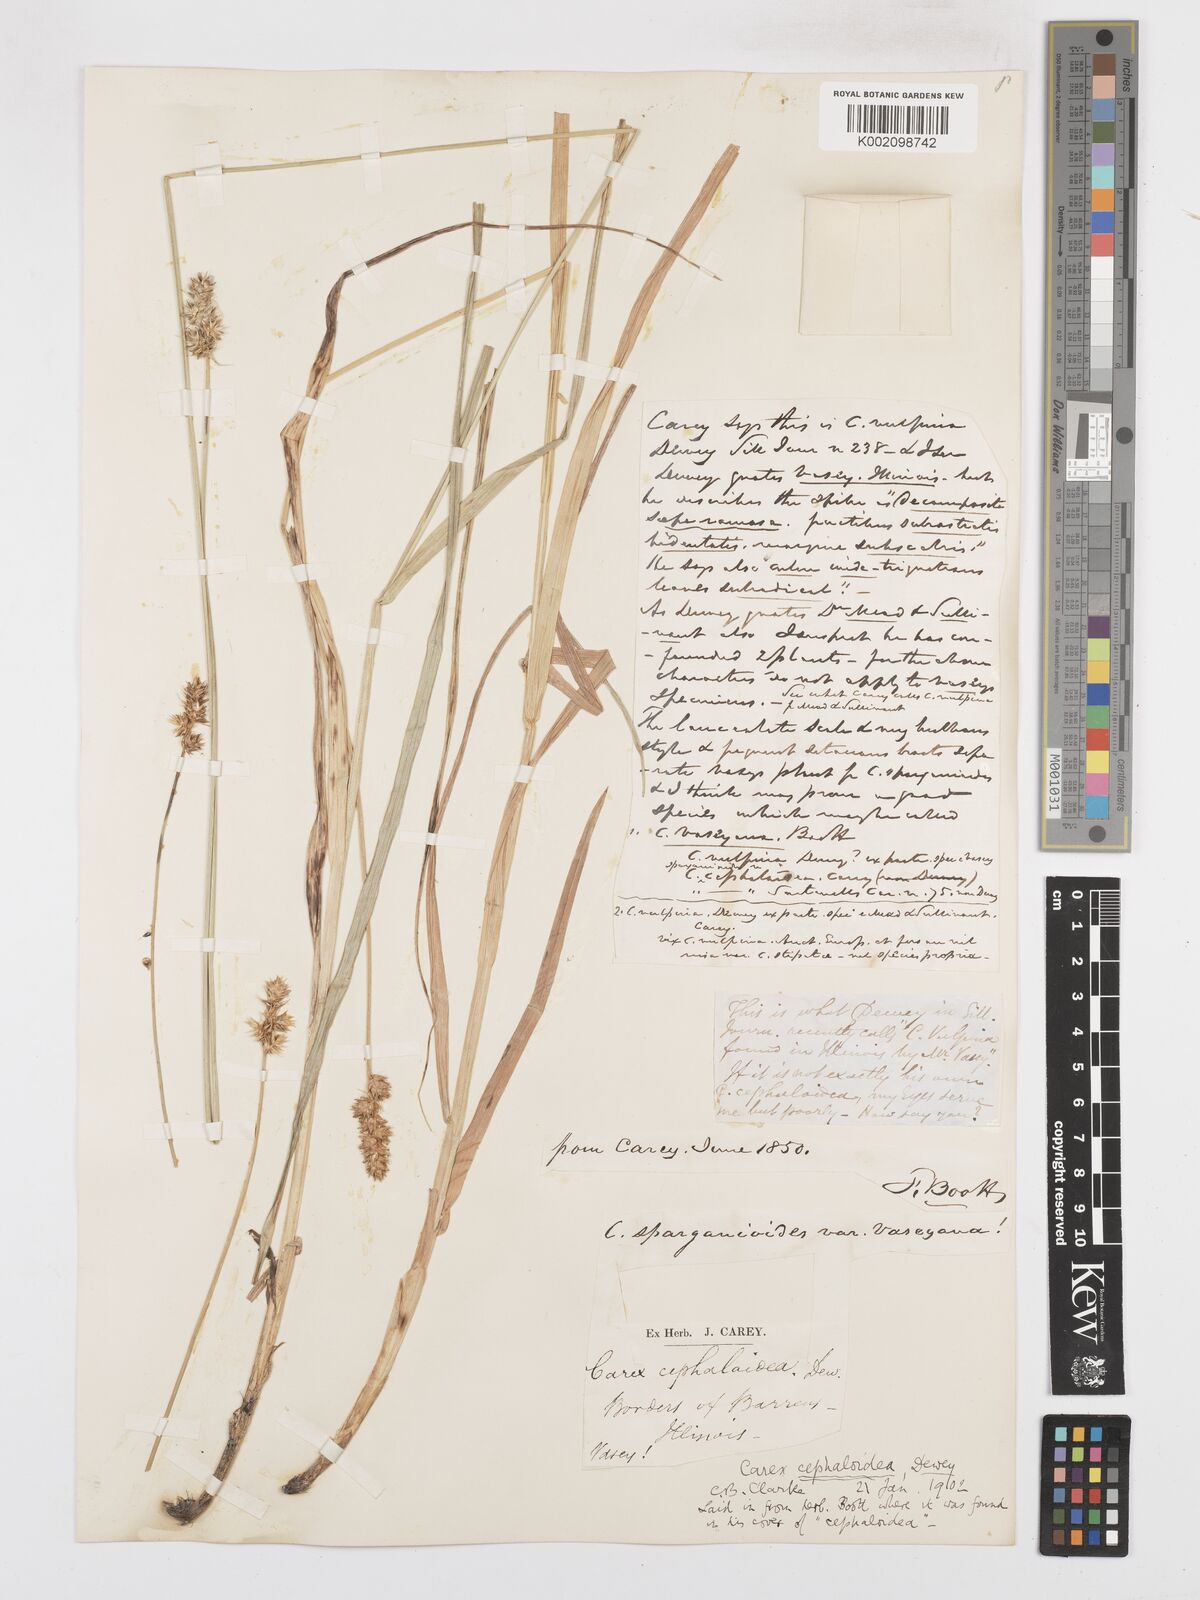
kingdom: Plantae
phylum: Tracheophyta
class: Liliopsida
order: Poales
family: Cyperaceae
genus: Carex
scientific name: Carex cephaloidea
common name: Thin-leaved sedge
